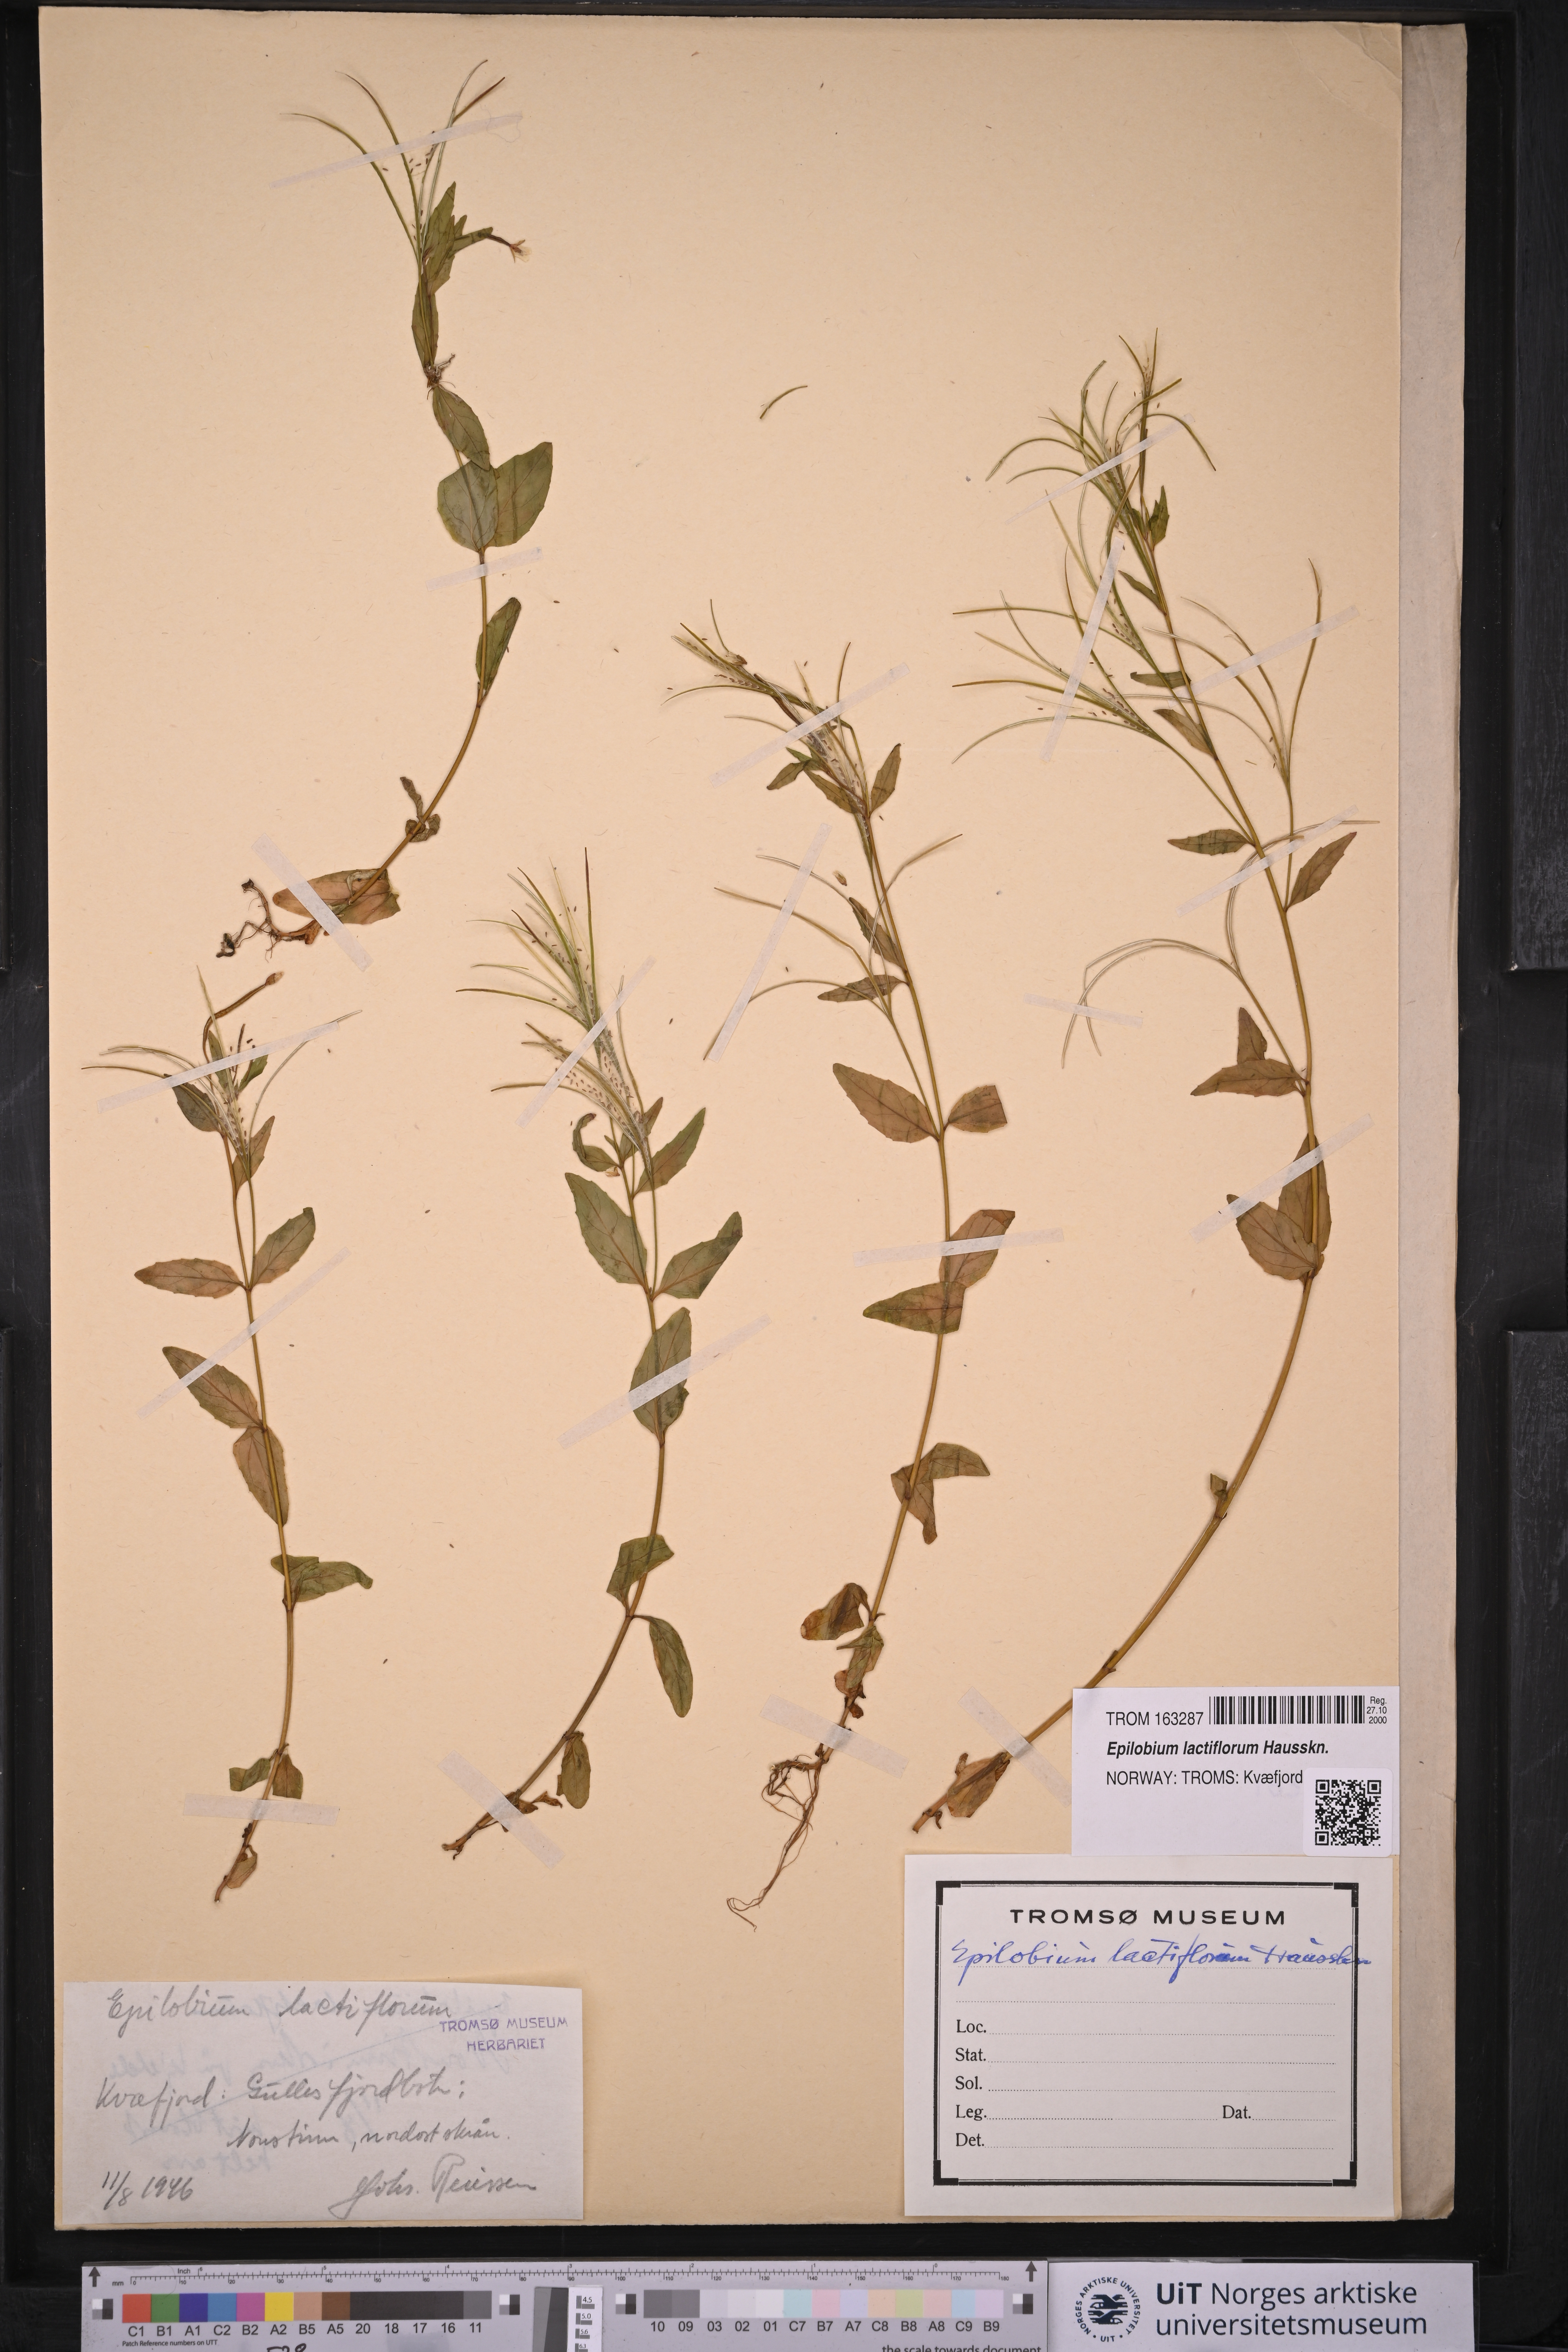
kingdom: Plantae
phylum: Tracheophyta
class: Magnoliopsida
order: Myrtales
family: Onagraceae
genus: Epilobium
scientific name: Epilobium lactiflorum
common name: Milkflower willowherb
